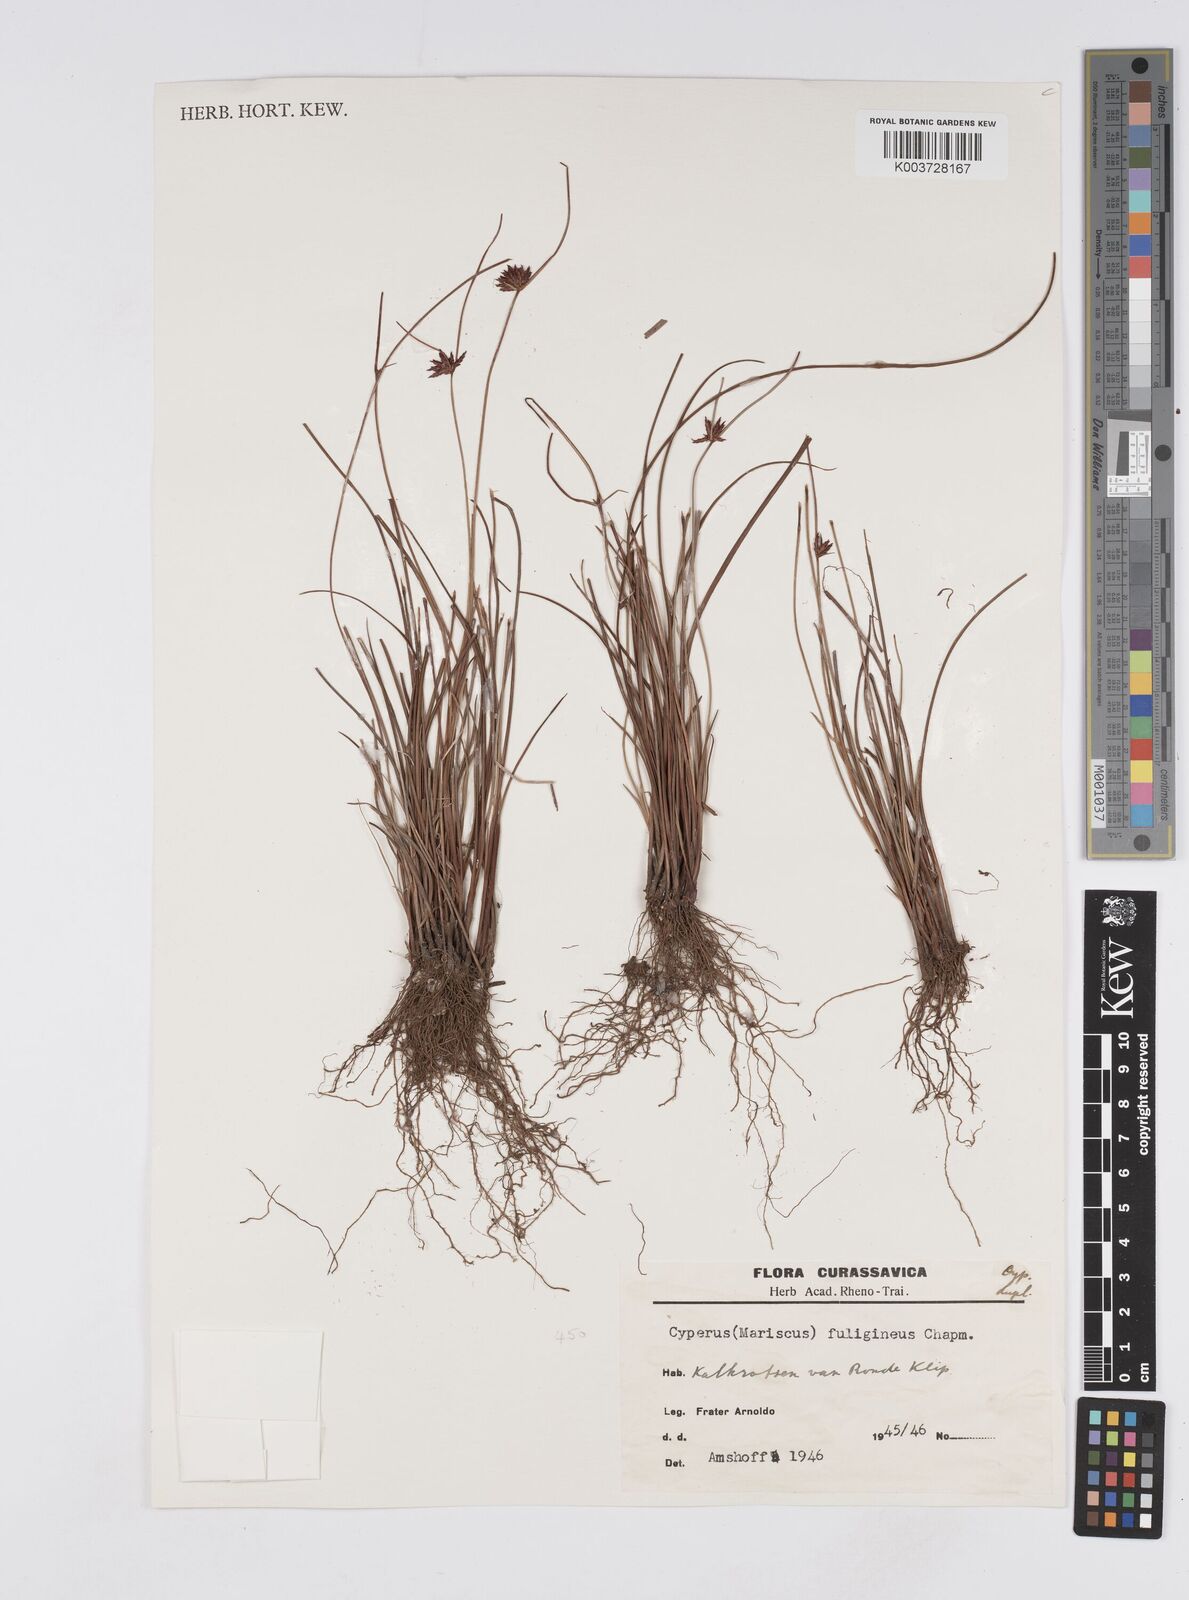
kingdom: Plantae
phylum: Tracheophyta
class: Liliopsida
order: Poales
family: Cyperaceae
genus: Cyperus
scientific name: Cyperus fuligineus
